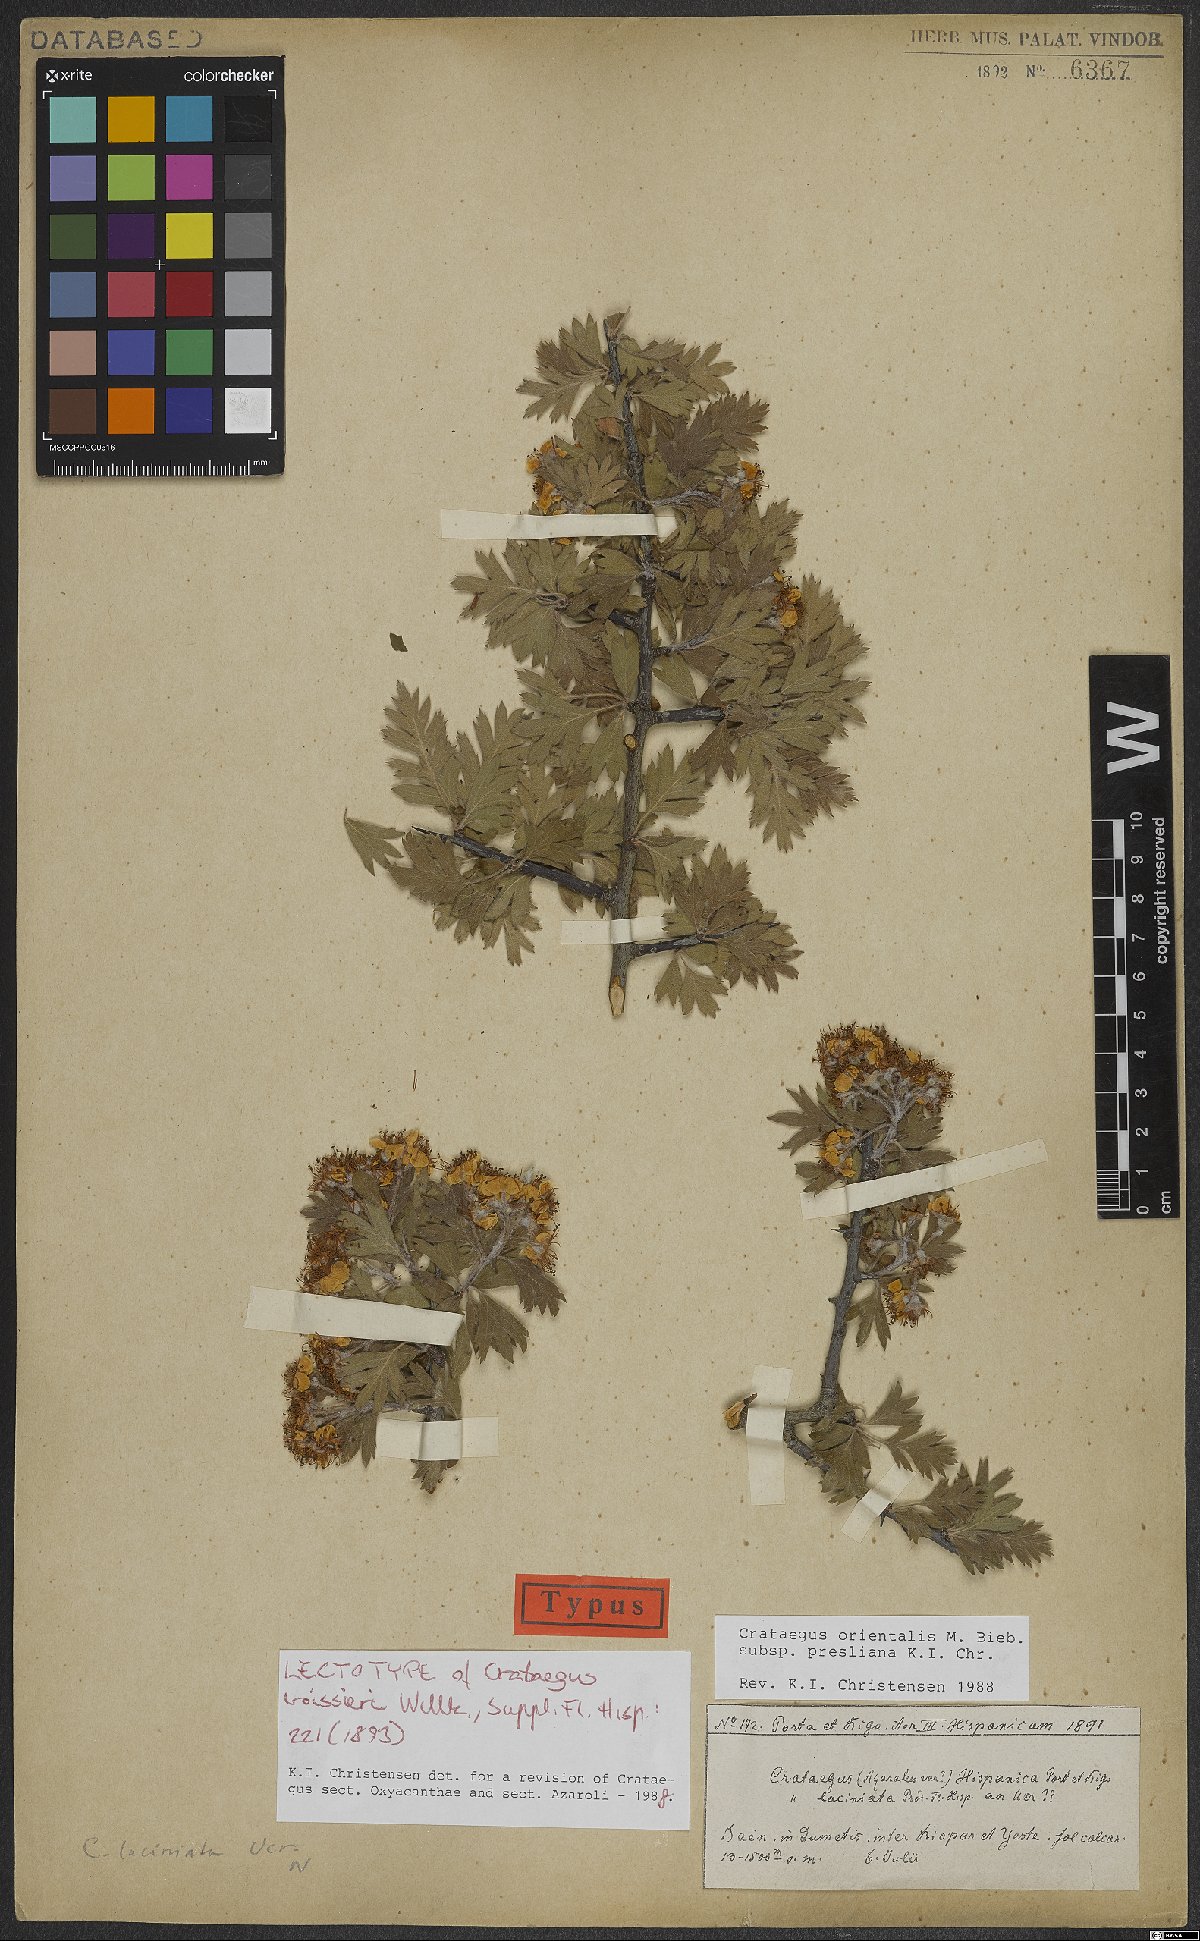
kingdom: Plantae
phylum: Tracheophyta
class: Magnoliopsida
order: Rosales
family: Rosaceae
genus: Crataegus
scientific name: Crataegus laciniata
